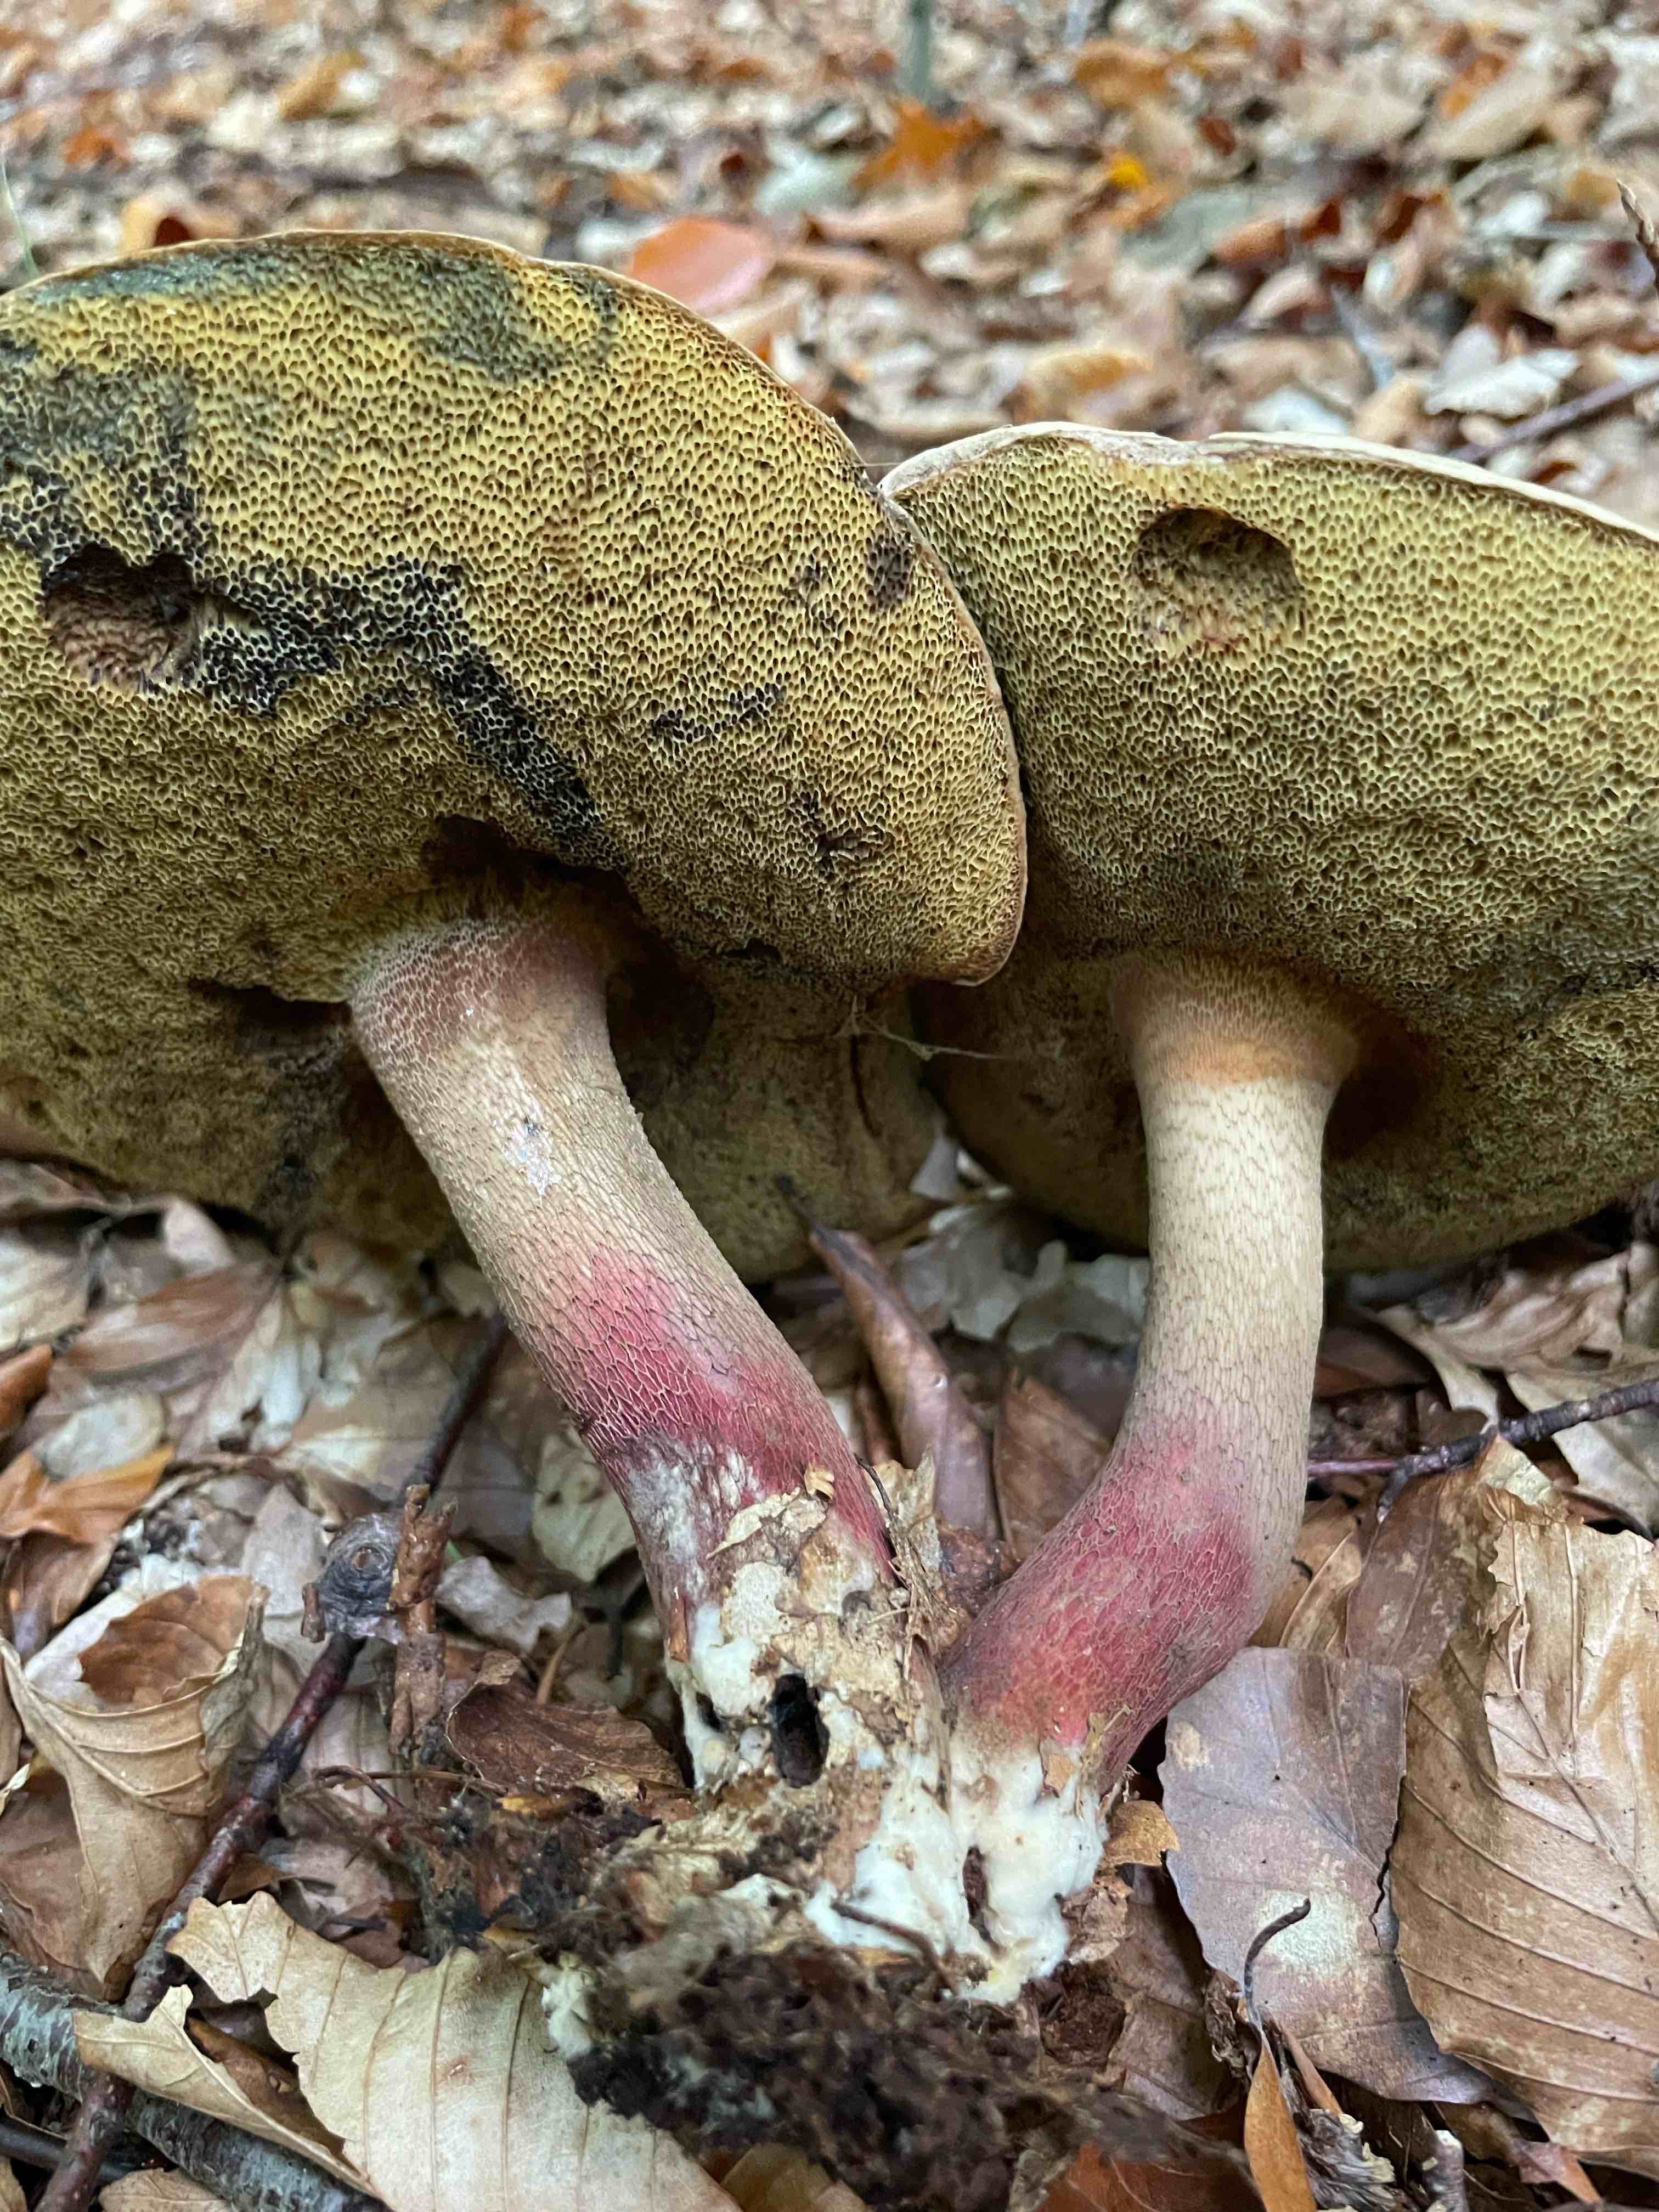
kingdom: Fungi
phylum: Basidiomycota
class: Agaricomycetes
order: Boletales
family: Boletaceae
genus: Caloboletus
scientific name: Caloboletus calopus
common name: skønfodet rørhat
